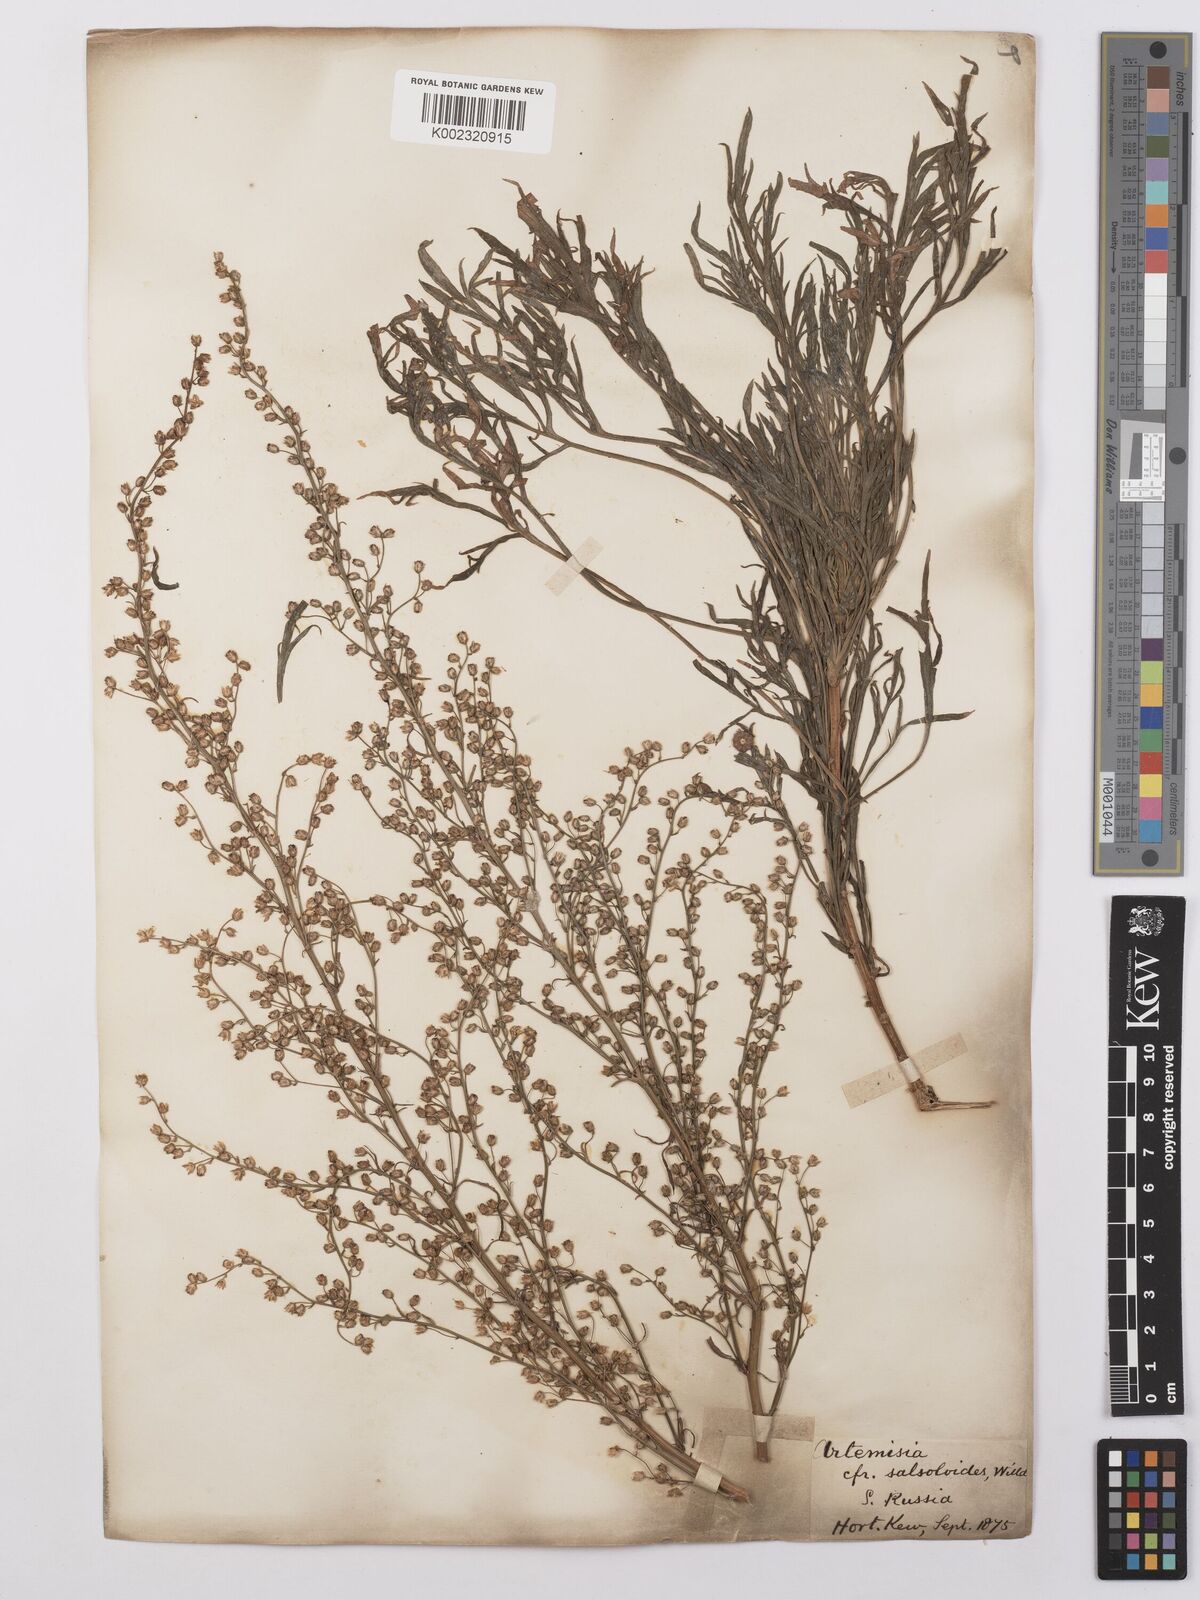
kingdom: Plantae
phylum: Tracheophyta
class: Magnoliopsida
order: Asterales
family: Asteraceae
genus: Artemisia
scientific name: Artemisia salsoloides
